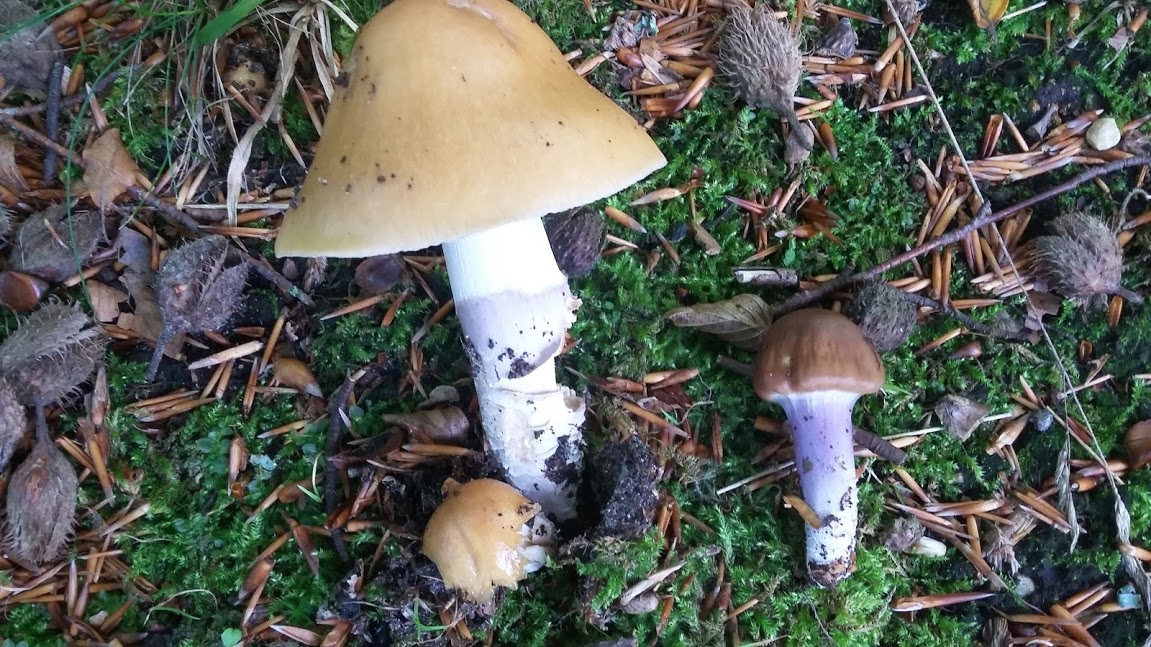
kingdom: Fungi
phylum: Basidiomycota
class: Agaricomycetes
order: Agaricales
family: Cortinariaceae
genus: Cortinarius
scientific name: Cortinarius elatior
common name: høj slørhat
